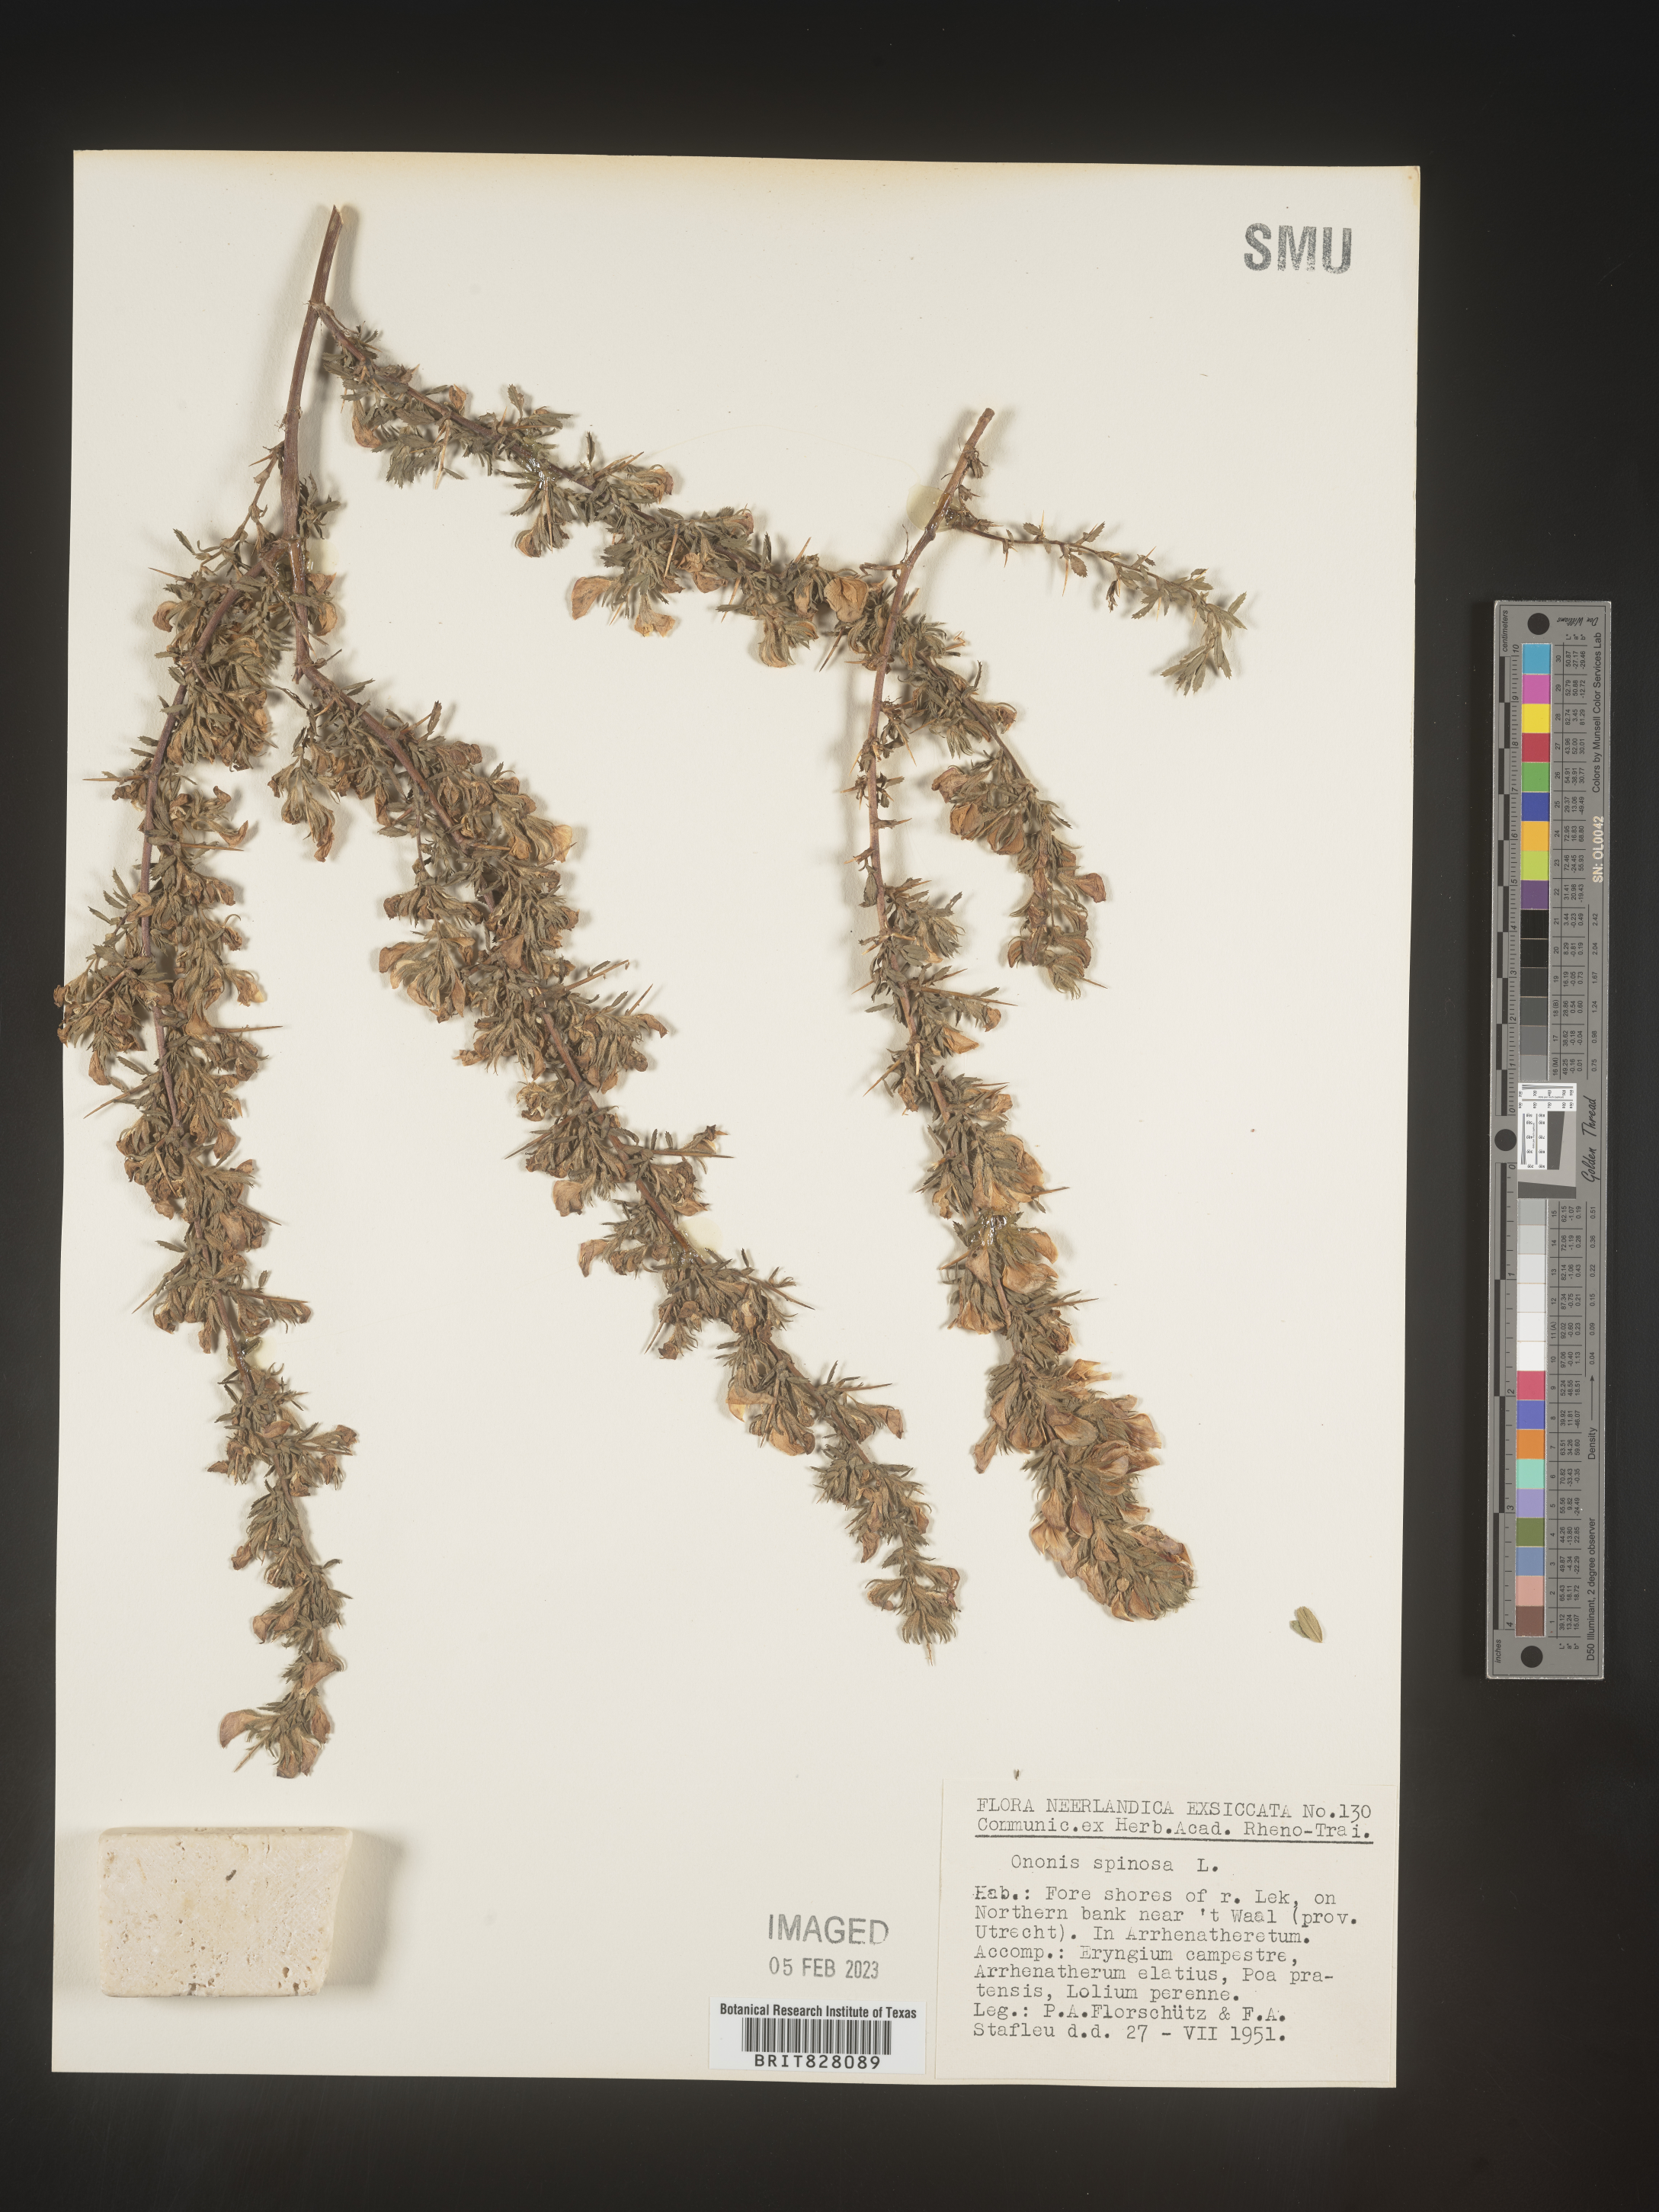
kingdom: Plantae
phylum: Tracheophyta
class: Magnoliopsida
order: Fabales
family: Fabaceae
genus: Ononis
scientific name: Ononis
